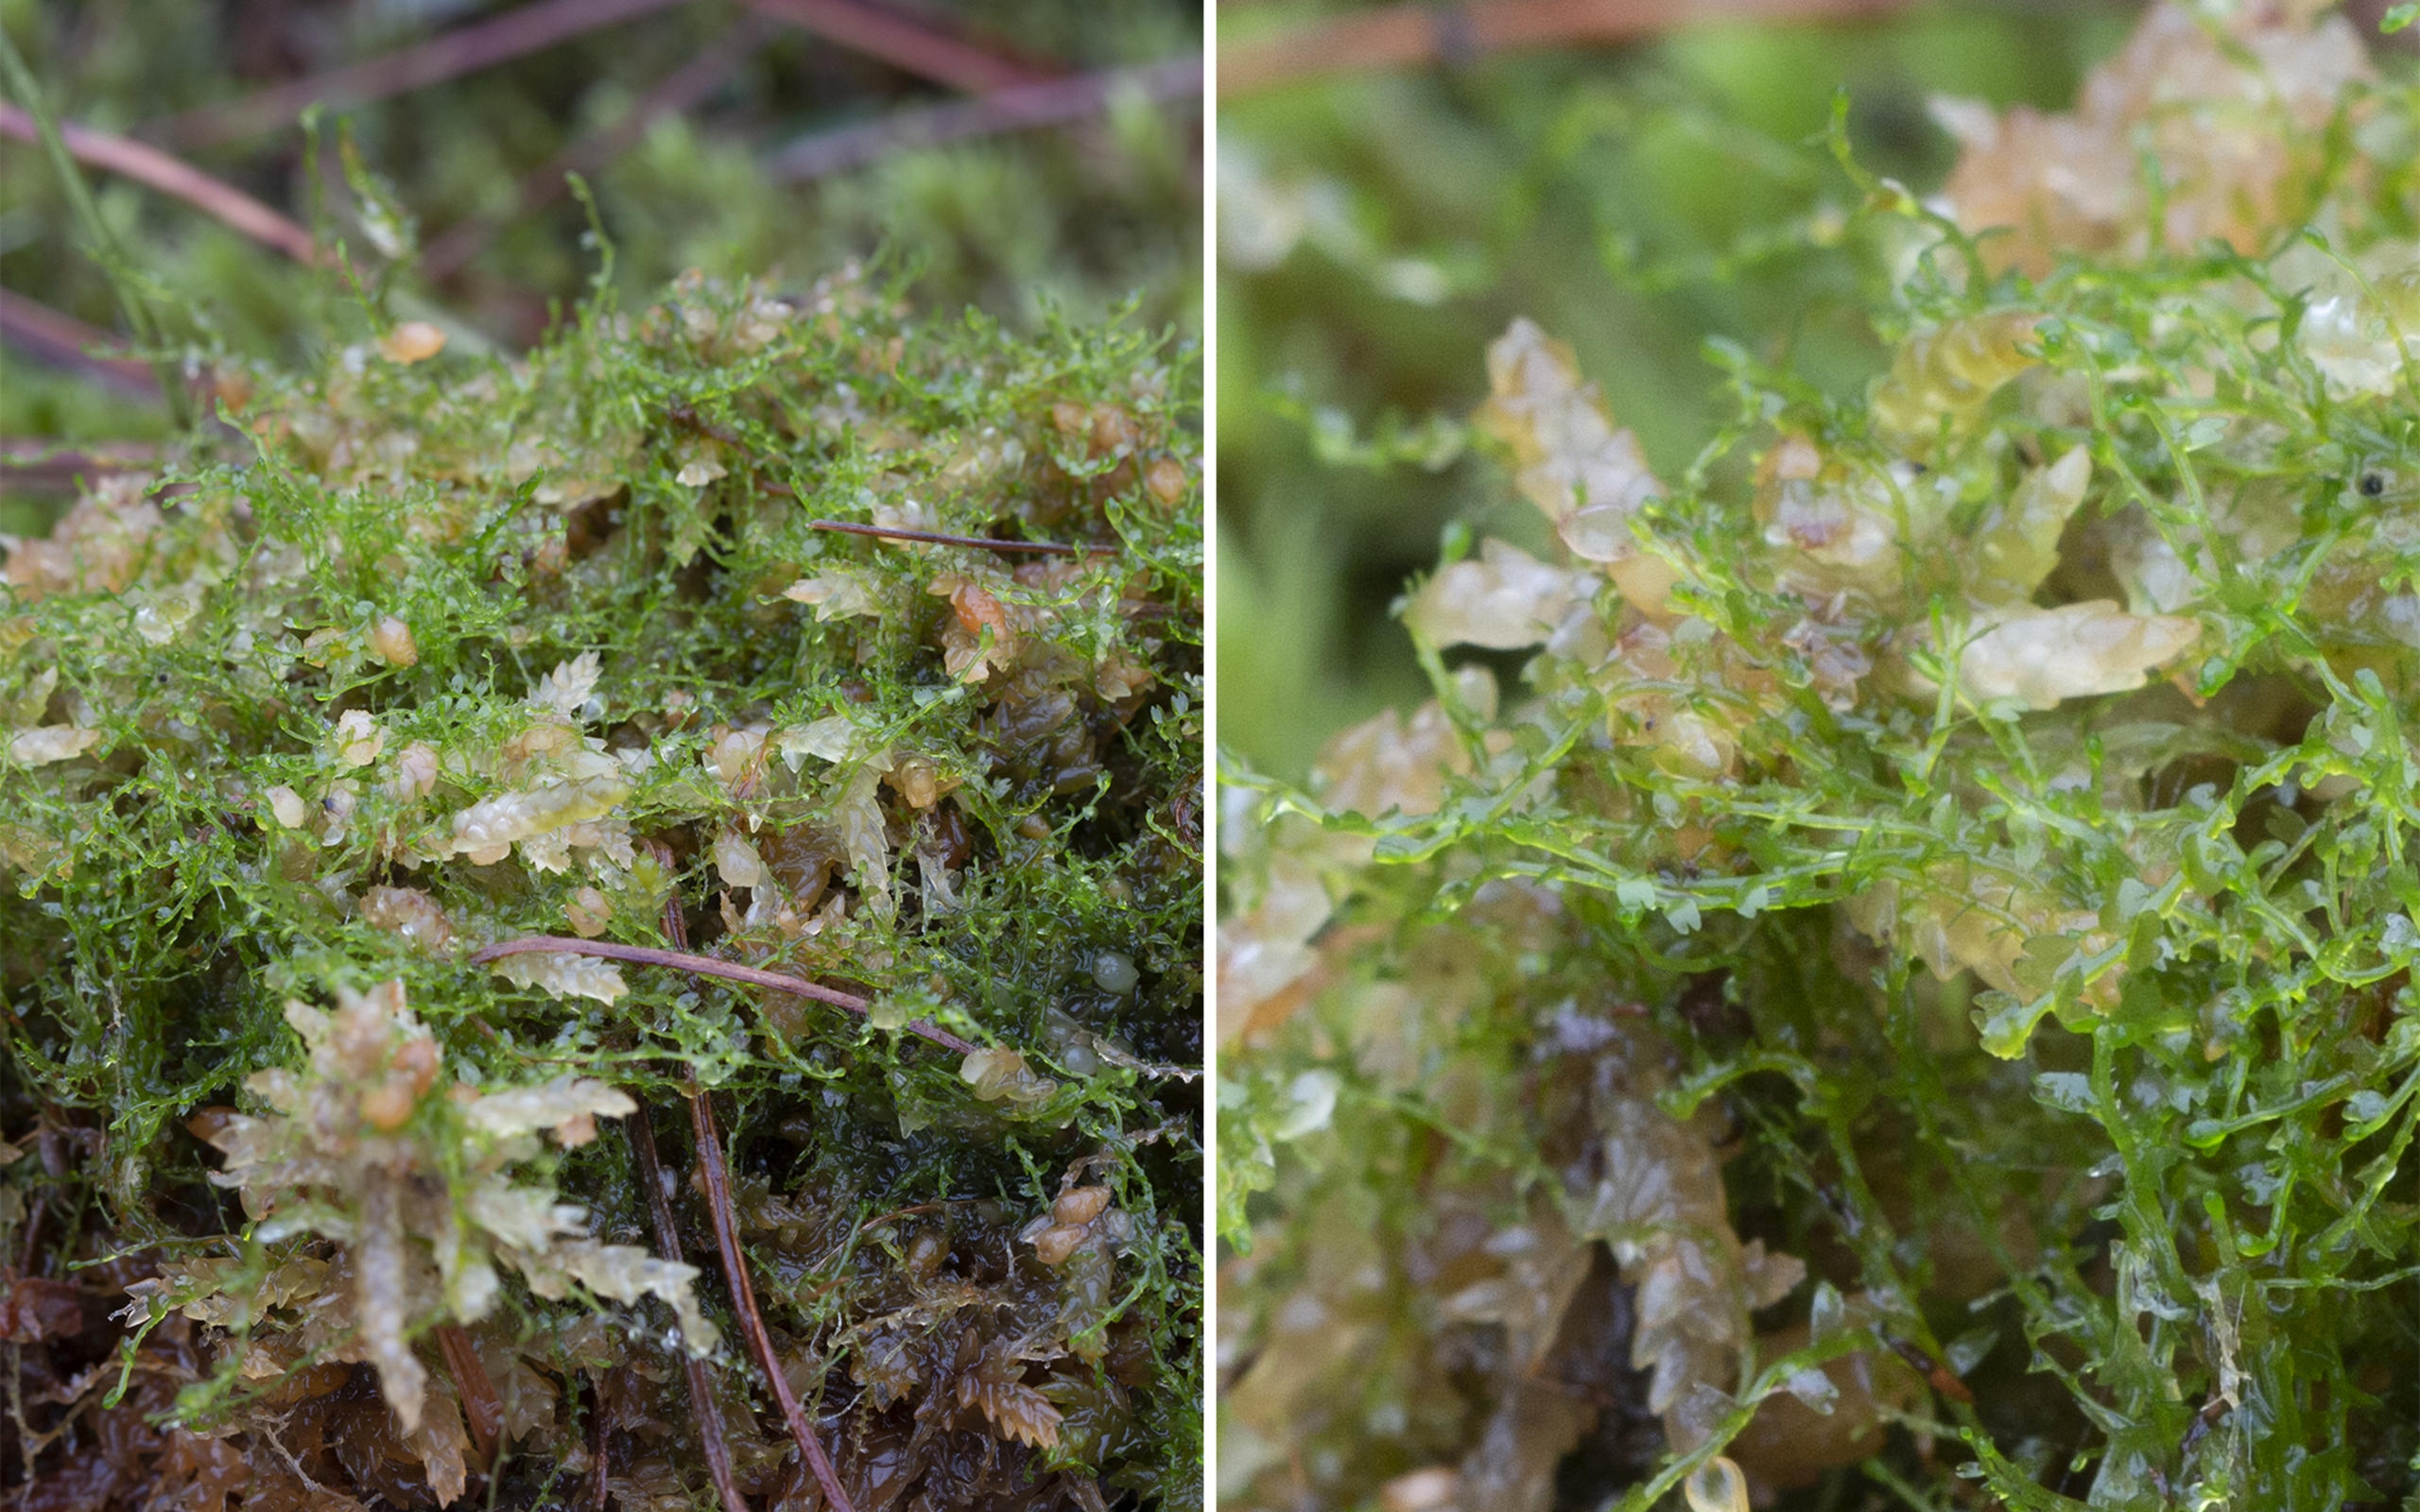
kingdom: Plantae
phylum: Marchantiophyta
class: Jungermanniopsida
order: Jungermanniales
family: Cephaloziaceae
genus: Odontoschisma
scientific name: Odontoschisma fluitans
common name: Tørve-vævmos
